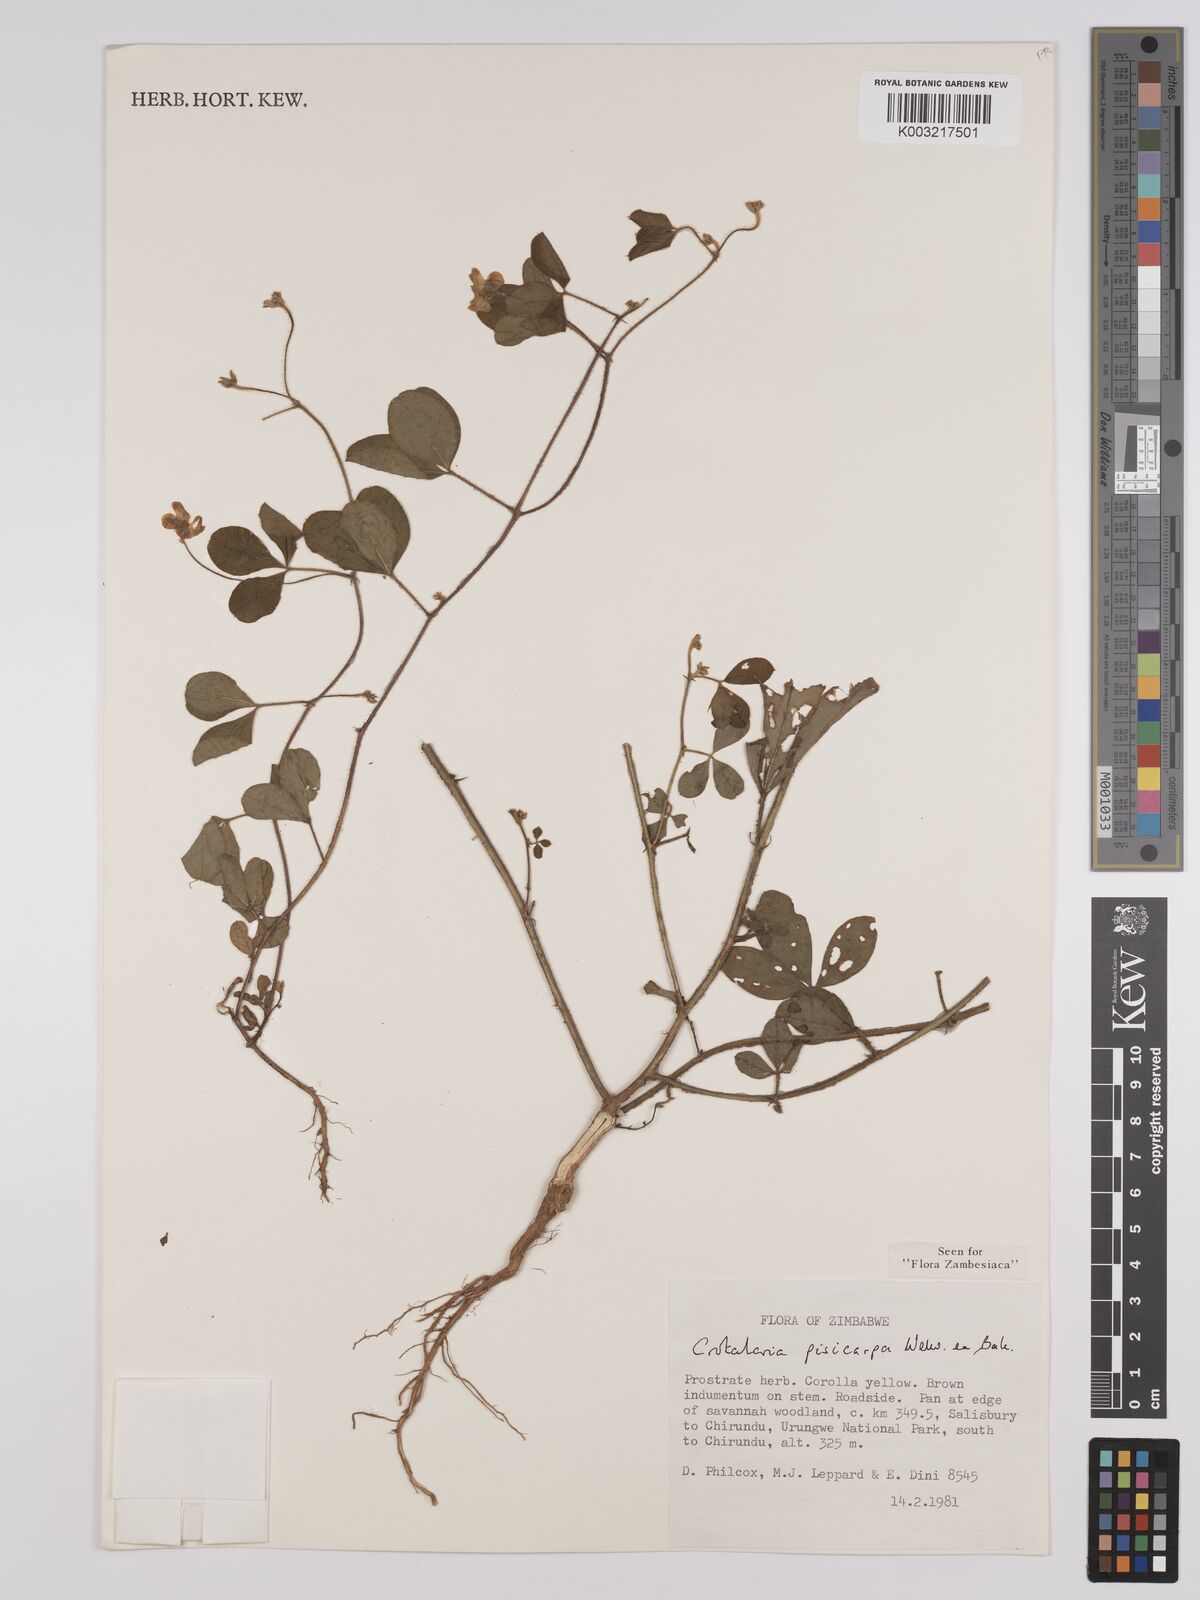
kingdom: Plantae
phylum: Tracheophyta
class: Magnoliopsida
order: Fabales
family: Fabaceae
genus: Crotalaria
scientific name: Crotalaria pisicarpa
